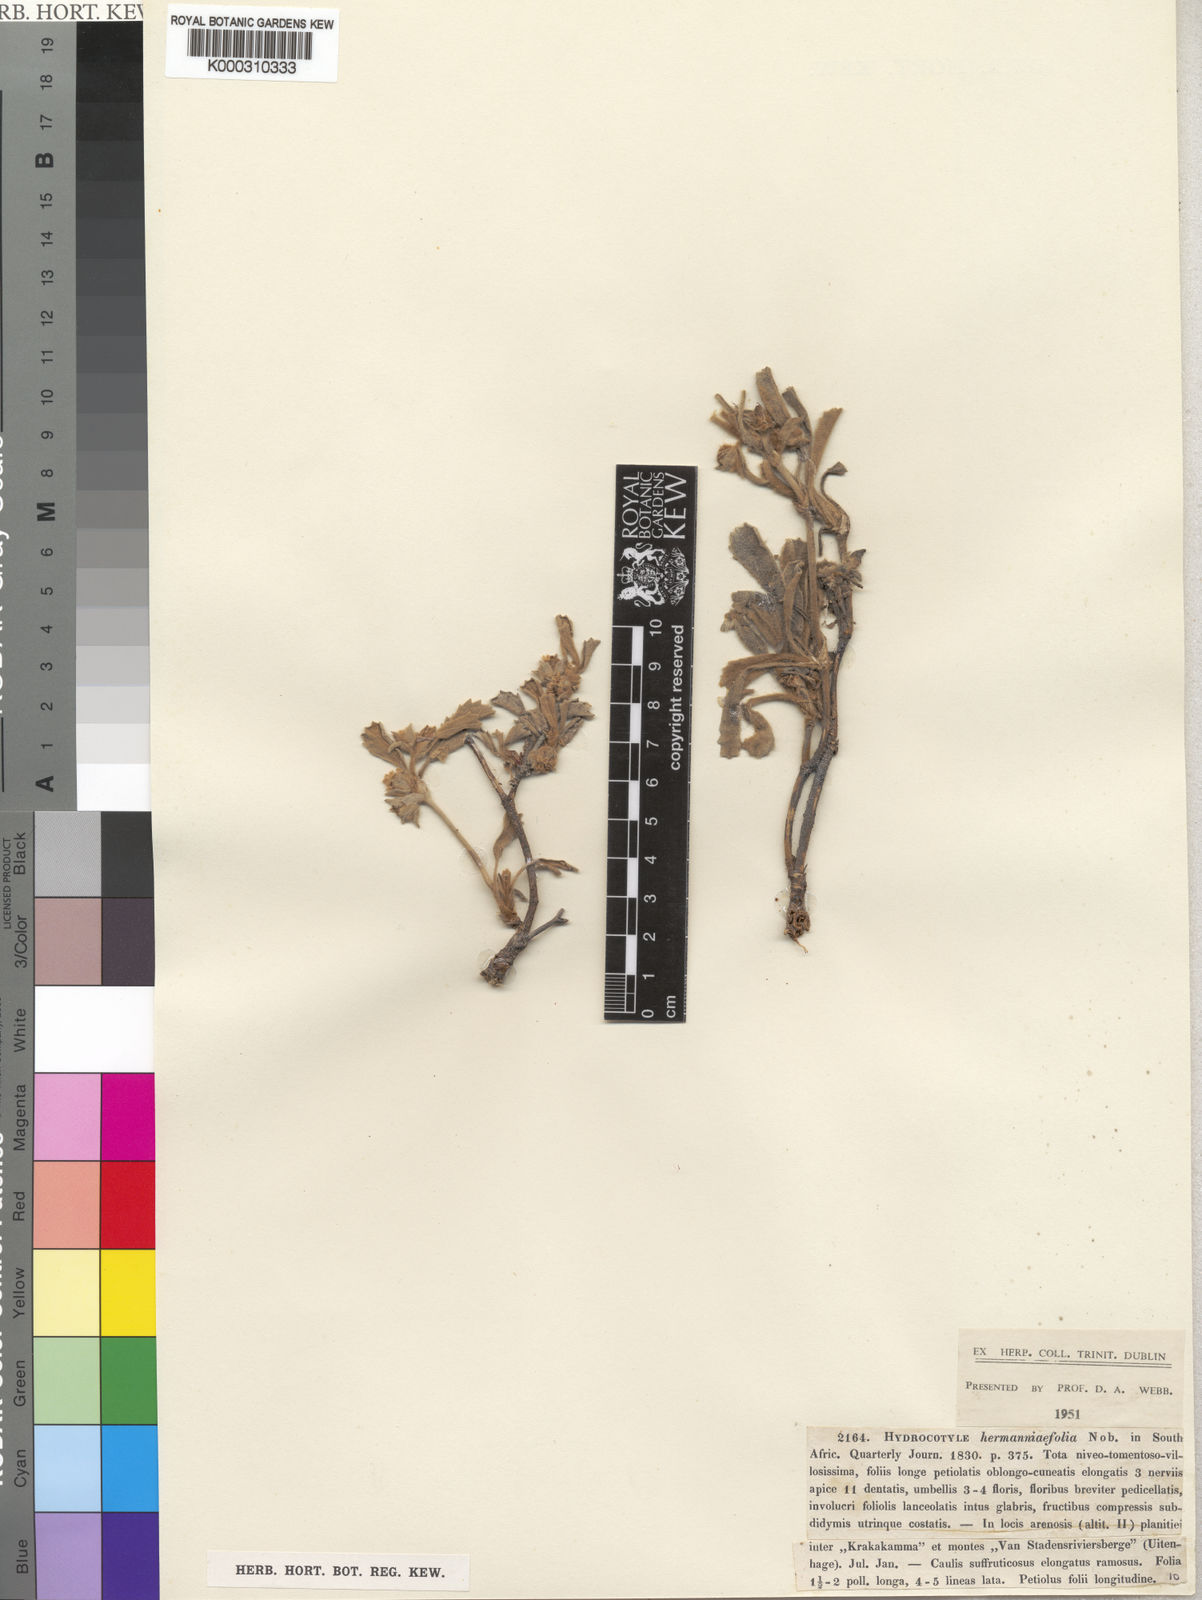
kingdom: Plantae
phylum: Tracheophyta
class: Magnoliopsida
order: Apiales
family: Apiaceae
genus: Centella
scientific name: Centella tridentata
